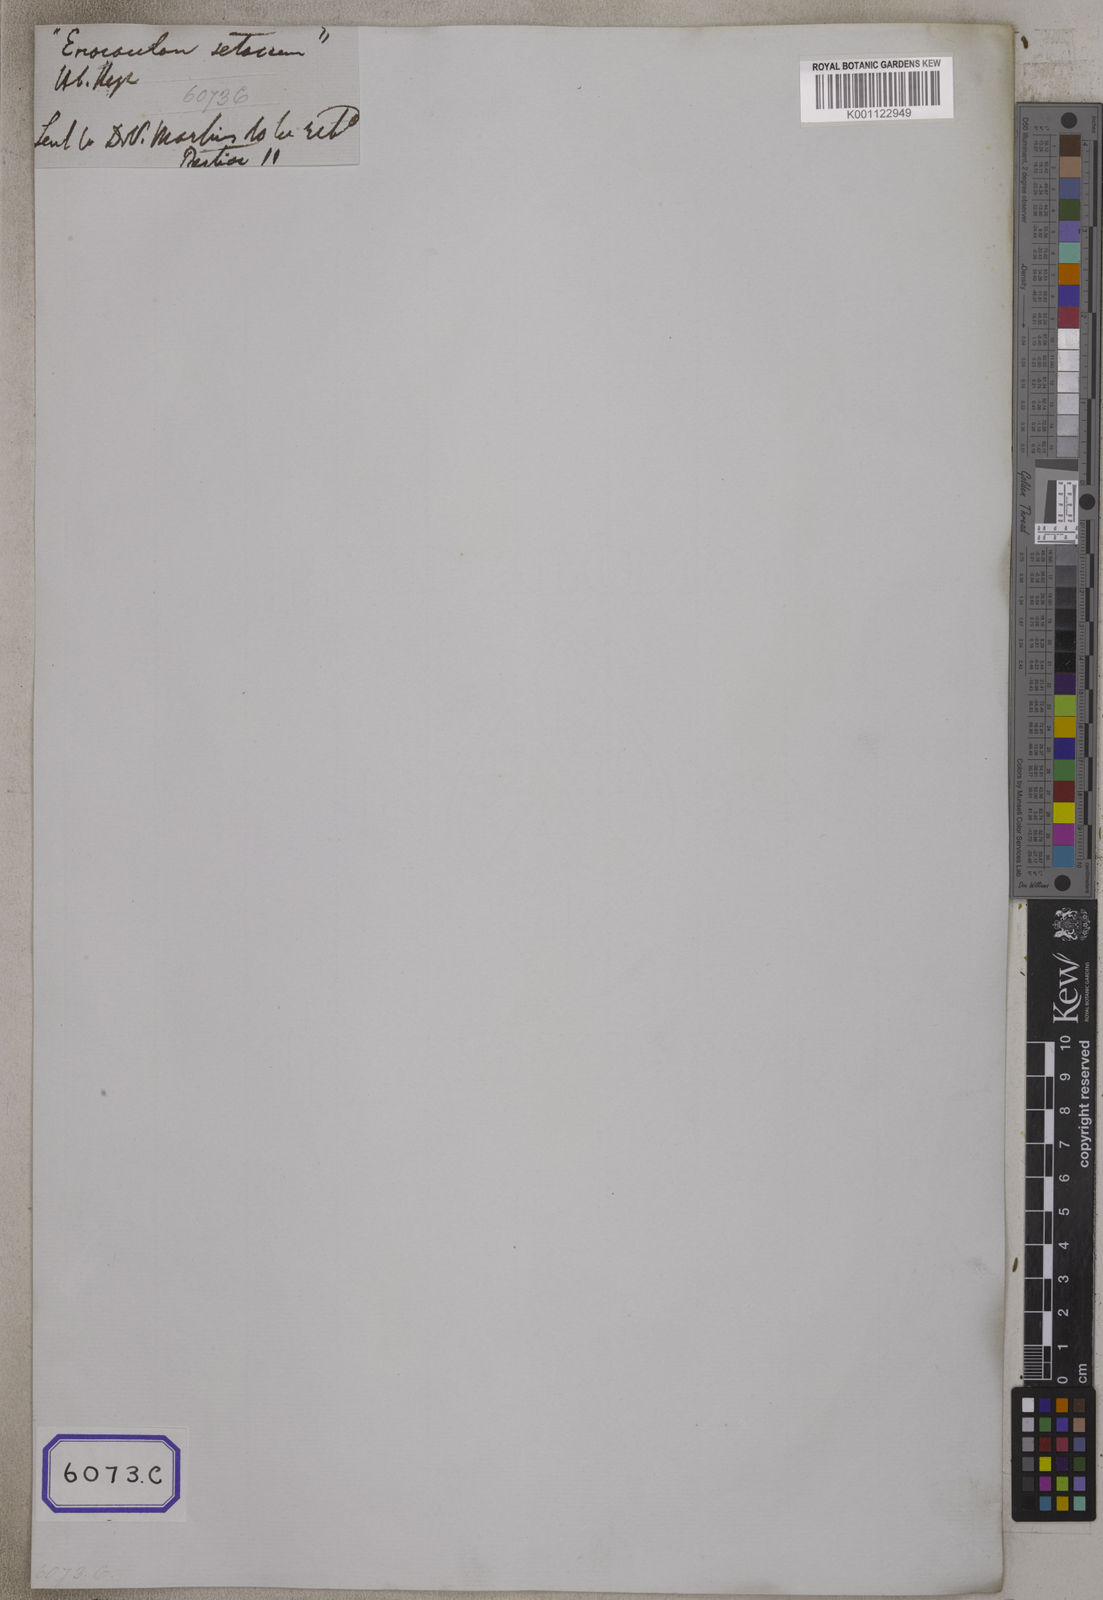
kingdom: Plantae
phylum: Tracheophyta
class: Liliopsida
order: Poales
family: Eriocaulaceae
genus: Eriocaulon
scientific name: Eriocaulon
